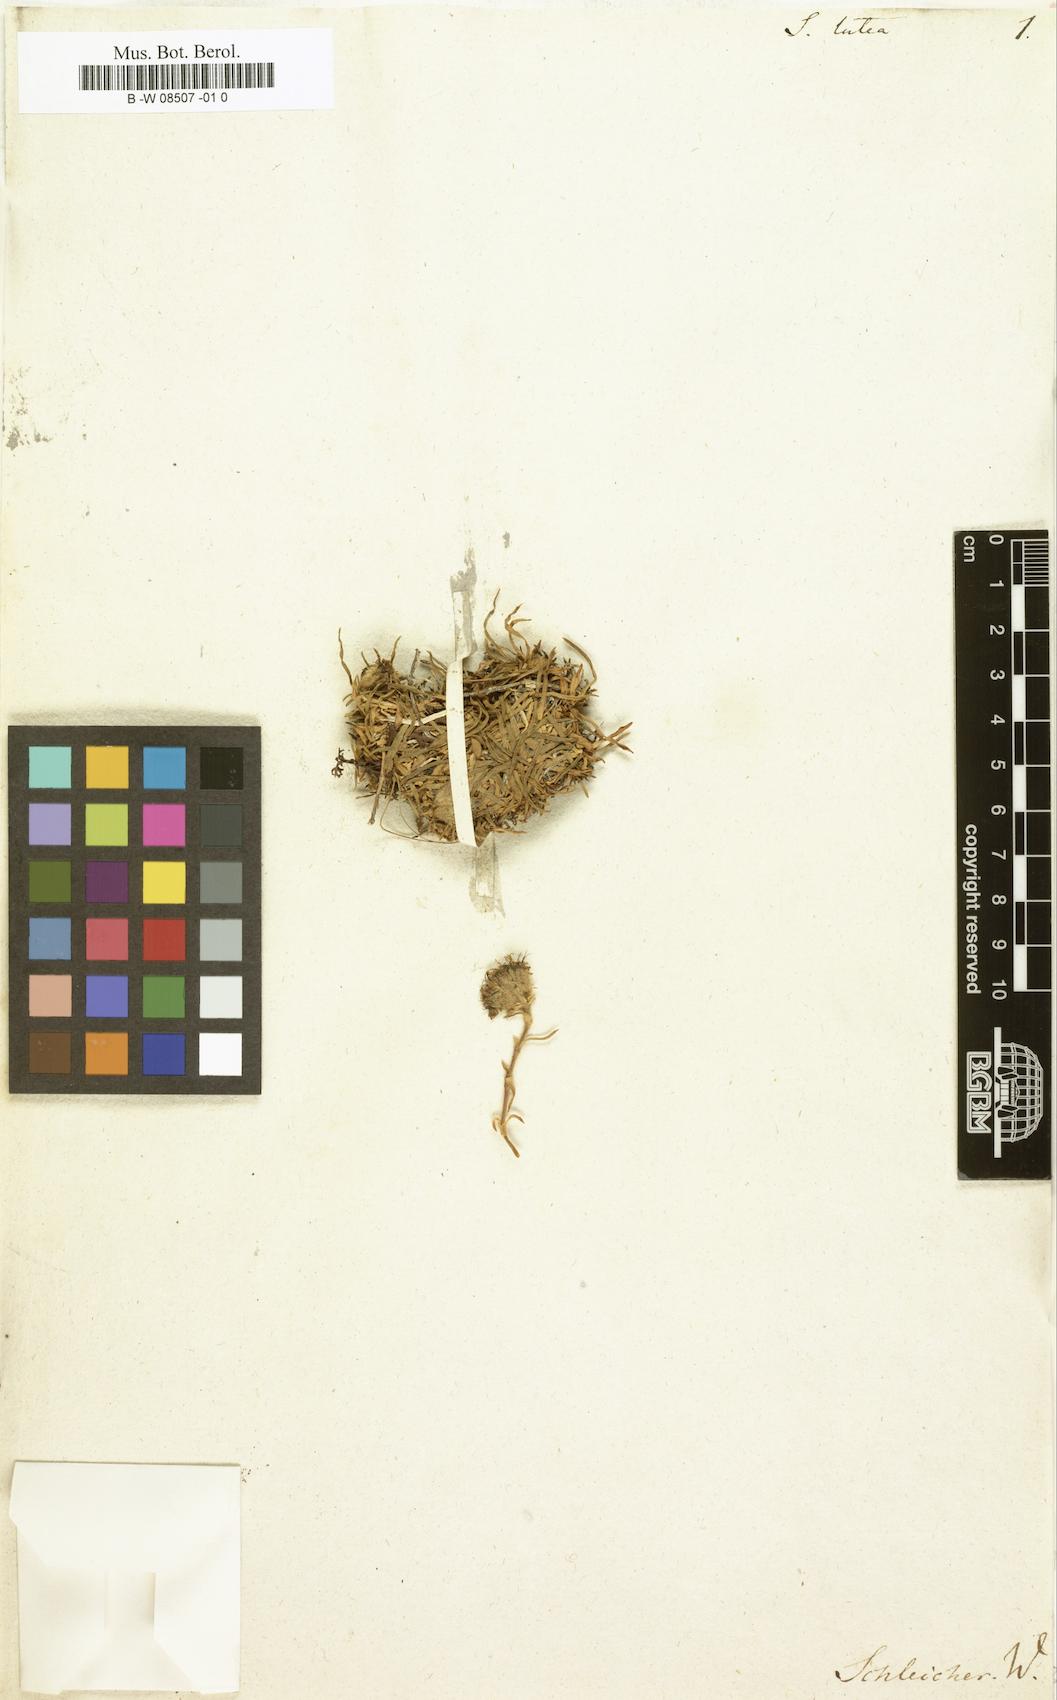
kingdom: Plantae
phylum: Tracheophyta
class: Magnoliopsida
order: Caryophyllales
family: Caryophyllaceae
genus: Saponaria
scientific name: Saponaria lutea
